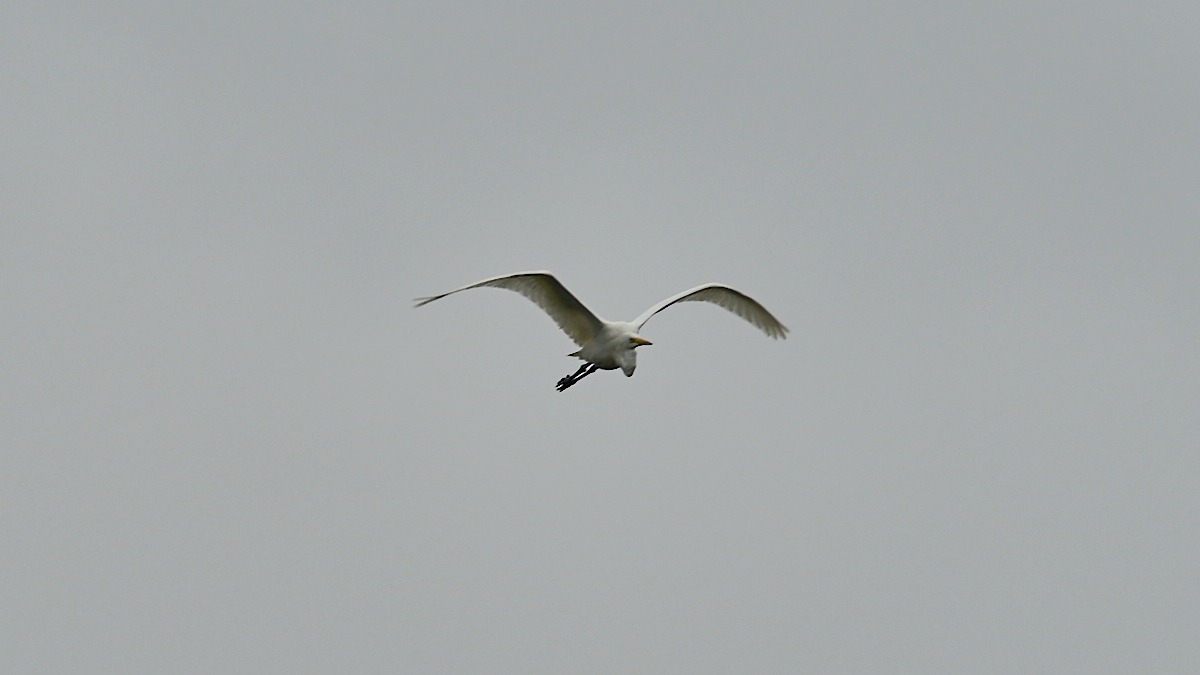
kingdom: Animalia
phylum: Chordata
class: Aves
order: Pelecaniformes
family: Ardeidae
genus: Ardea
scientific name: Ardea alba
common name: Sølvhejre
